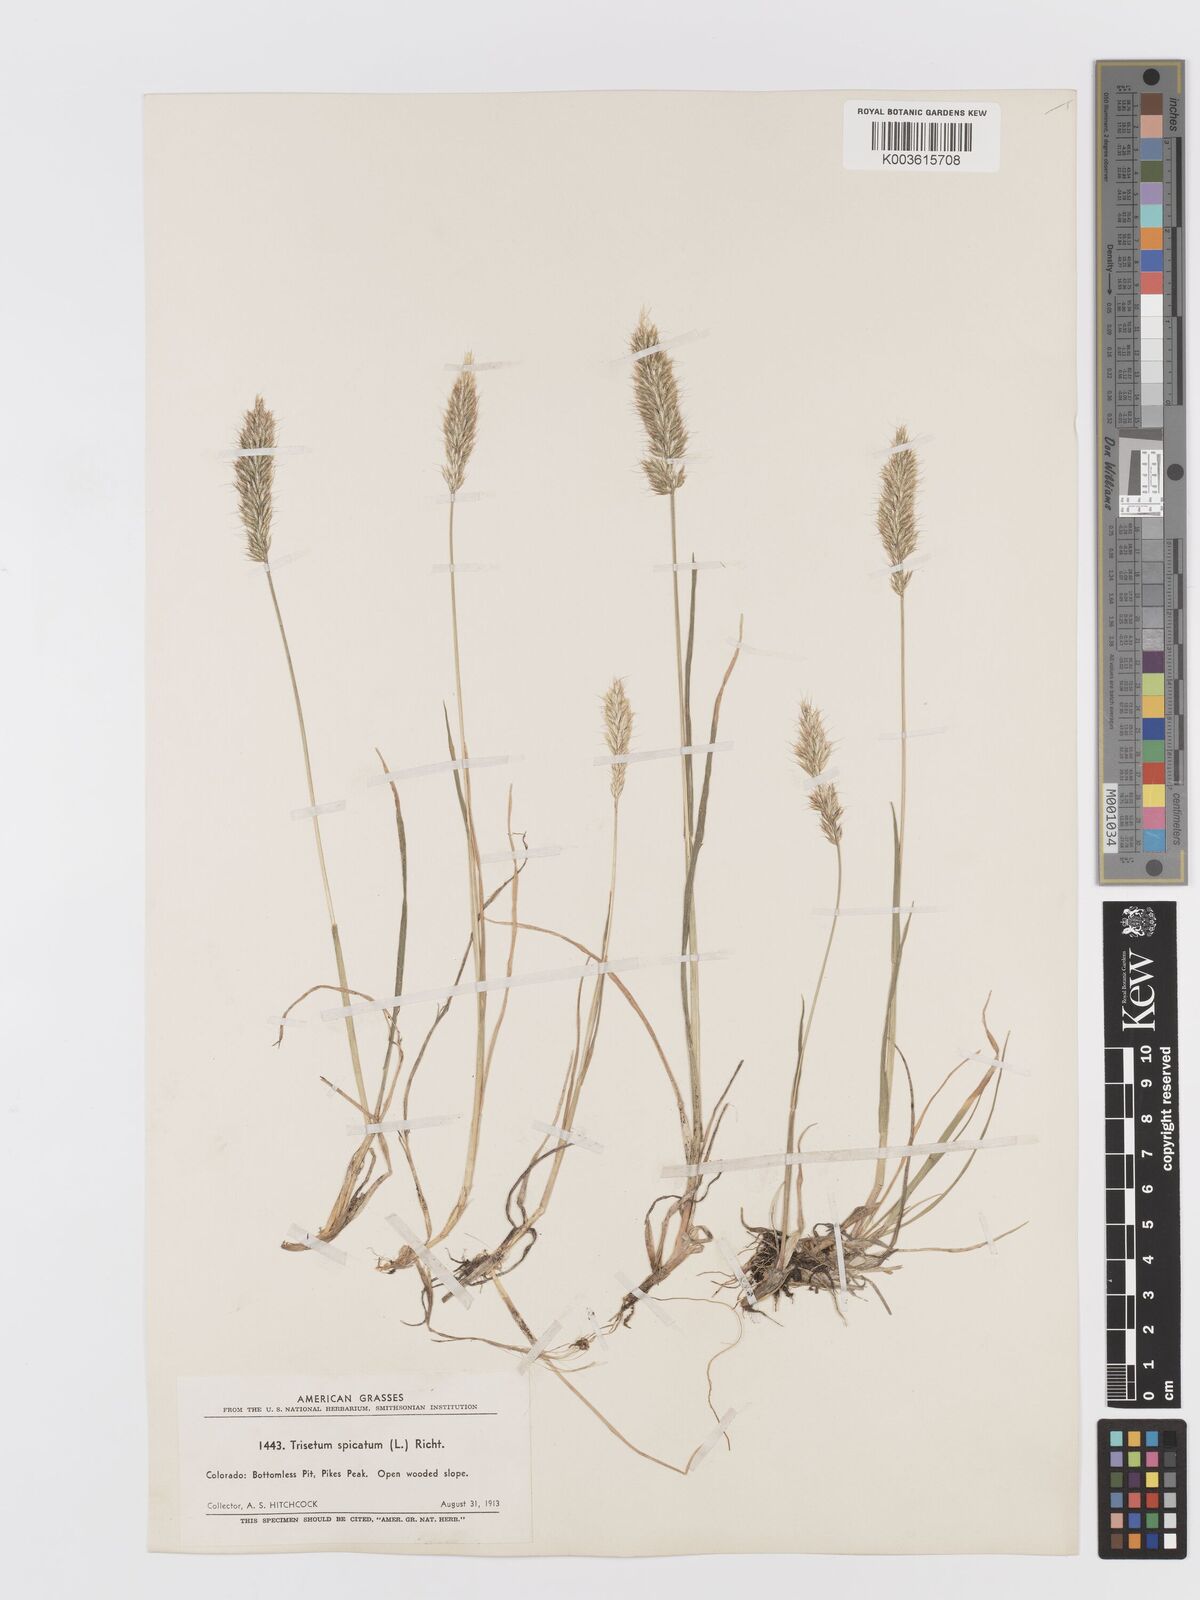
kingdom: Plantae
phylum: Tracheophyta
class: Liliopsida
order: Poales
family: Poaceae
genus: Koeleria
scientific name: Koeleria spicata
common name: Mountain trisetum
